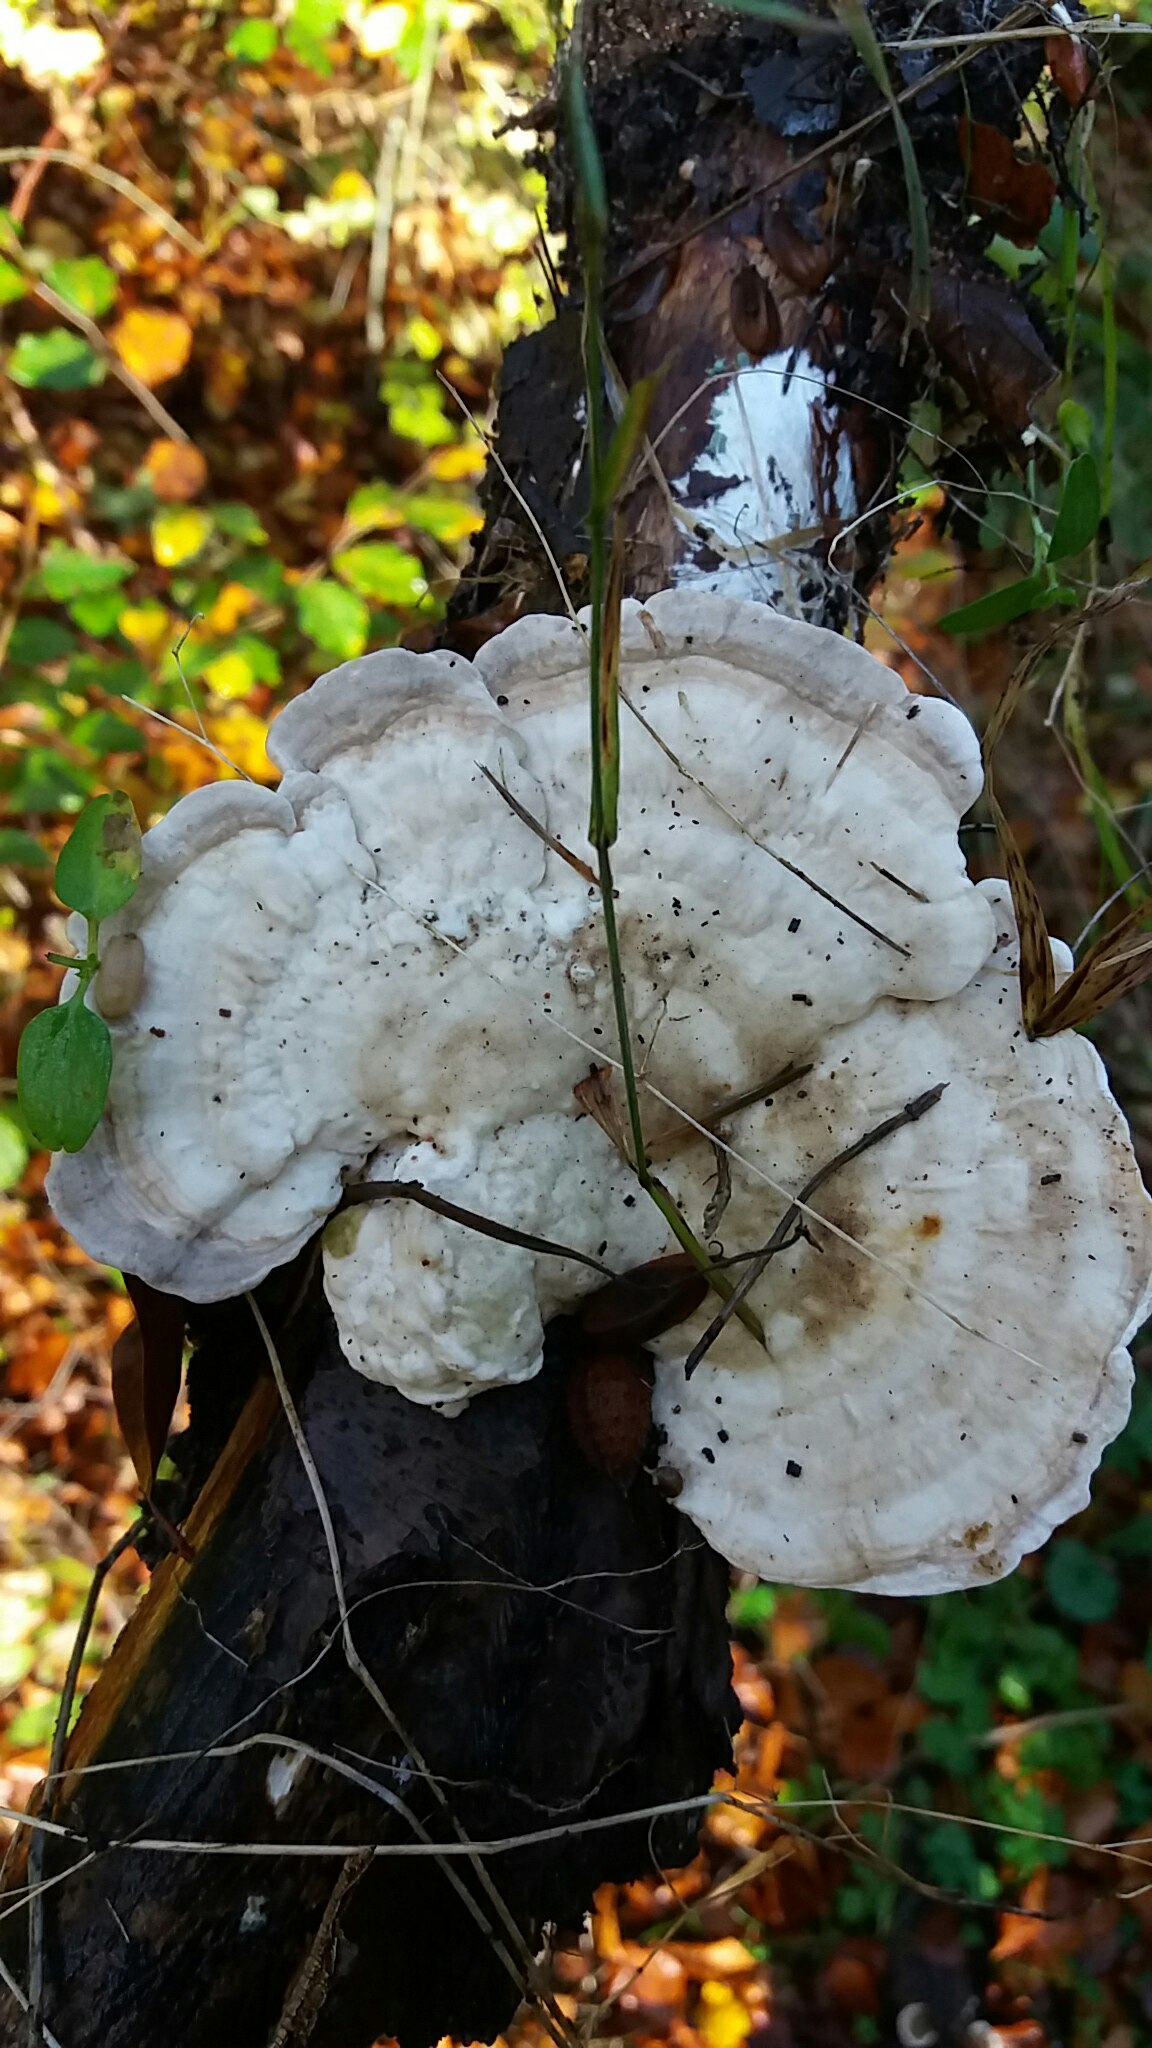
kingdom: Fungi
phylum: Basidiomycota
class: Agaricomycetes
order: Polyporales
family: Polyporaceae
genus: Trametes
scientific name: Trametes gibbosa
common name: puklet læderporesvamp
